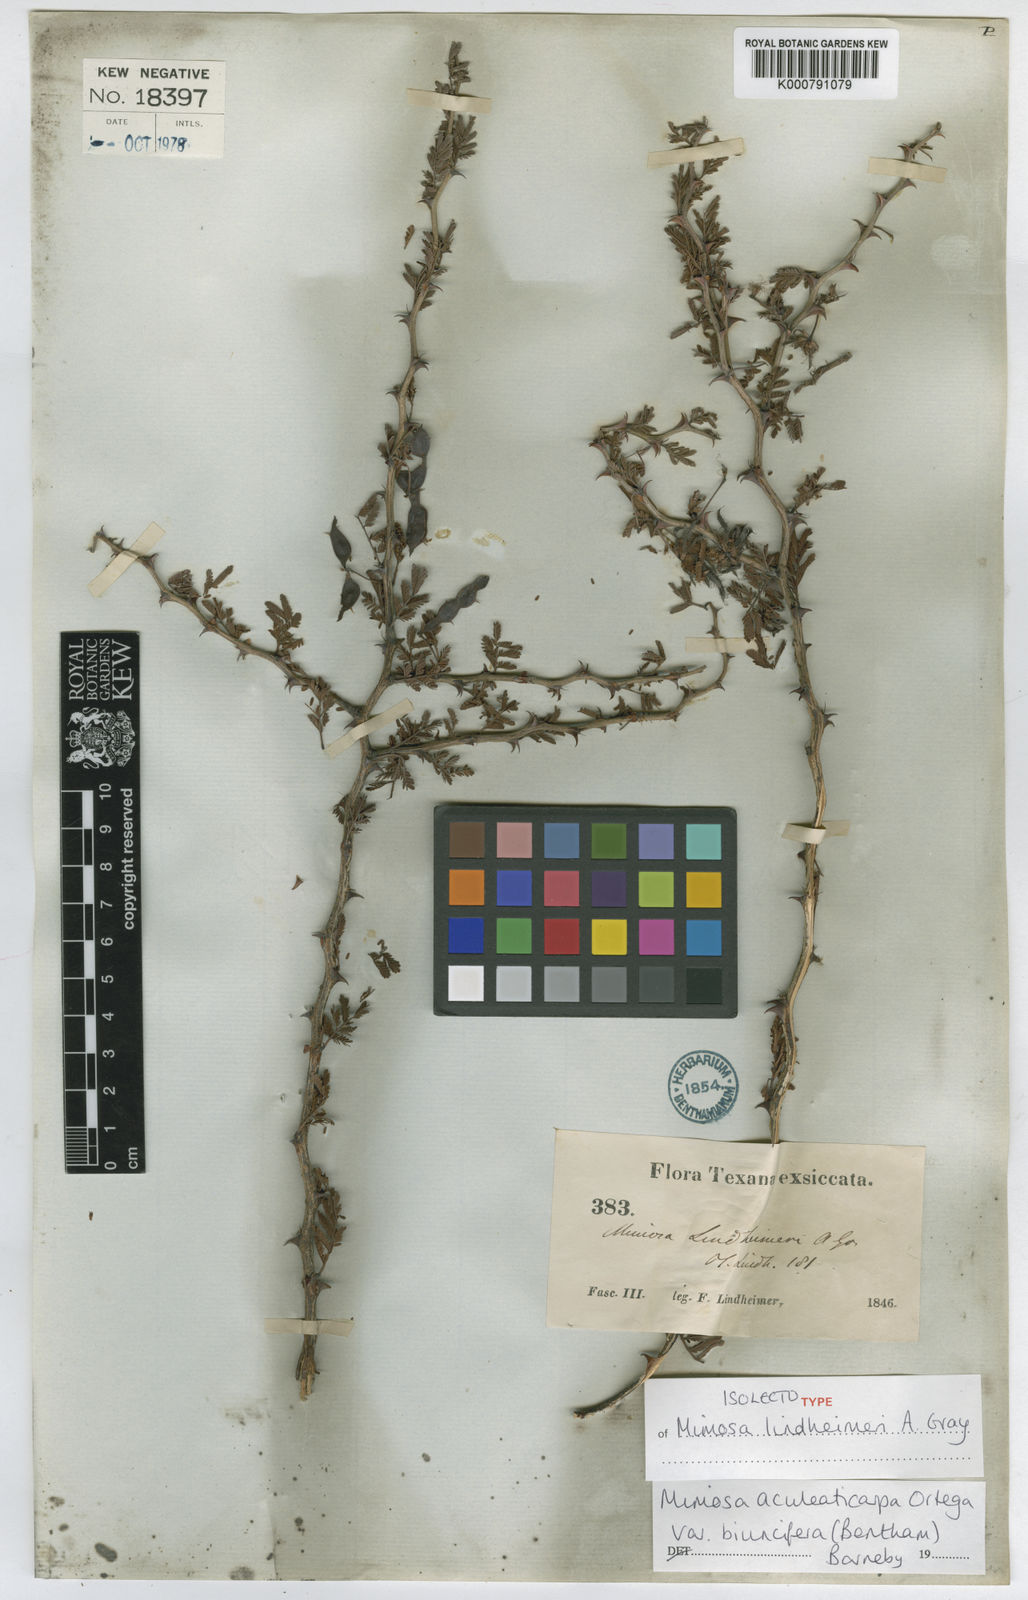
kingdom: Plantae
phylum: Tracheophyta
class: Magnoliopsida
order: Fabales
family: Fabaceae
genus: Mimosa
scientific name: Mimosa biuncifera
